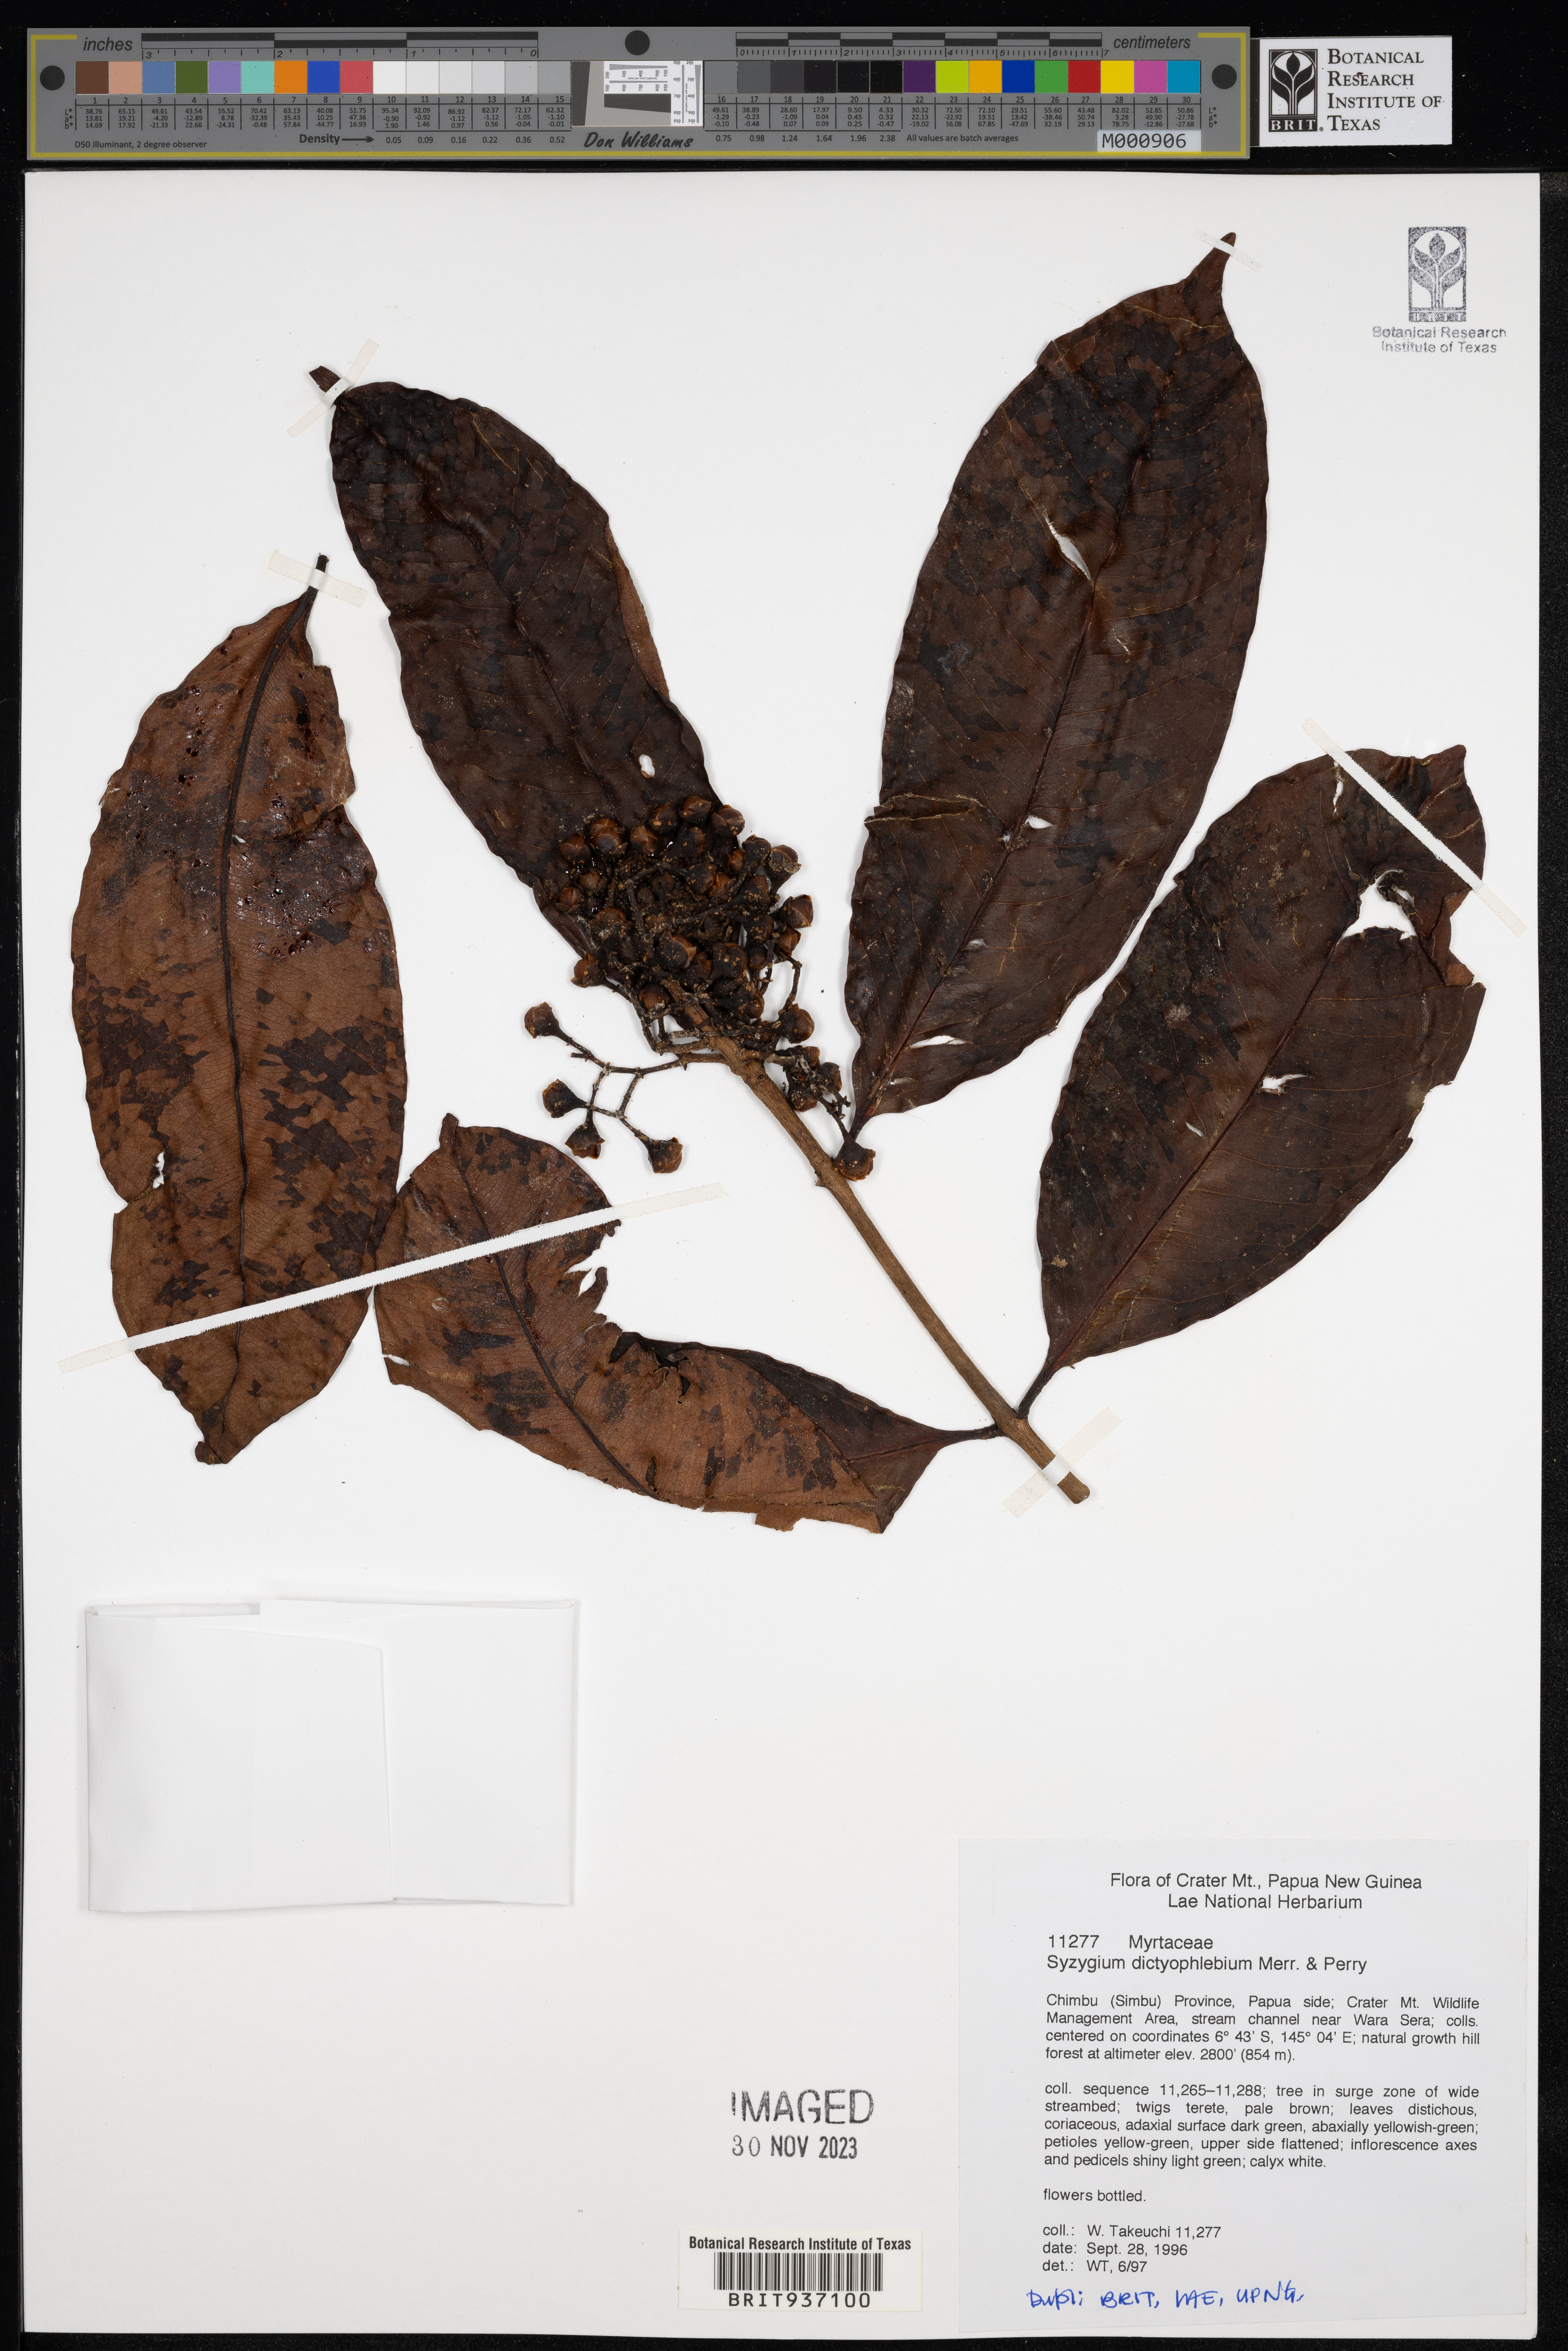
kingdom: Plantae
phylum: Tracheophyta
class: Magnoliopsida
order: Myrtales
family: Myrtaceae
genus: Syzygium
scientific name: Syzygium
